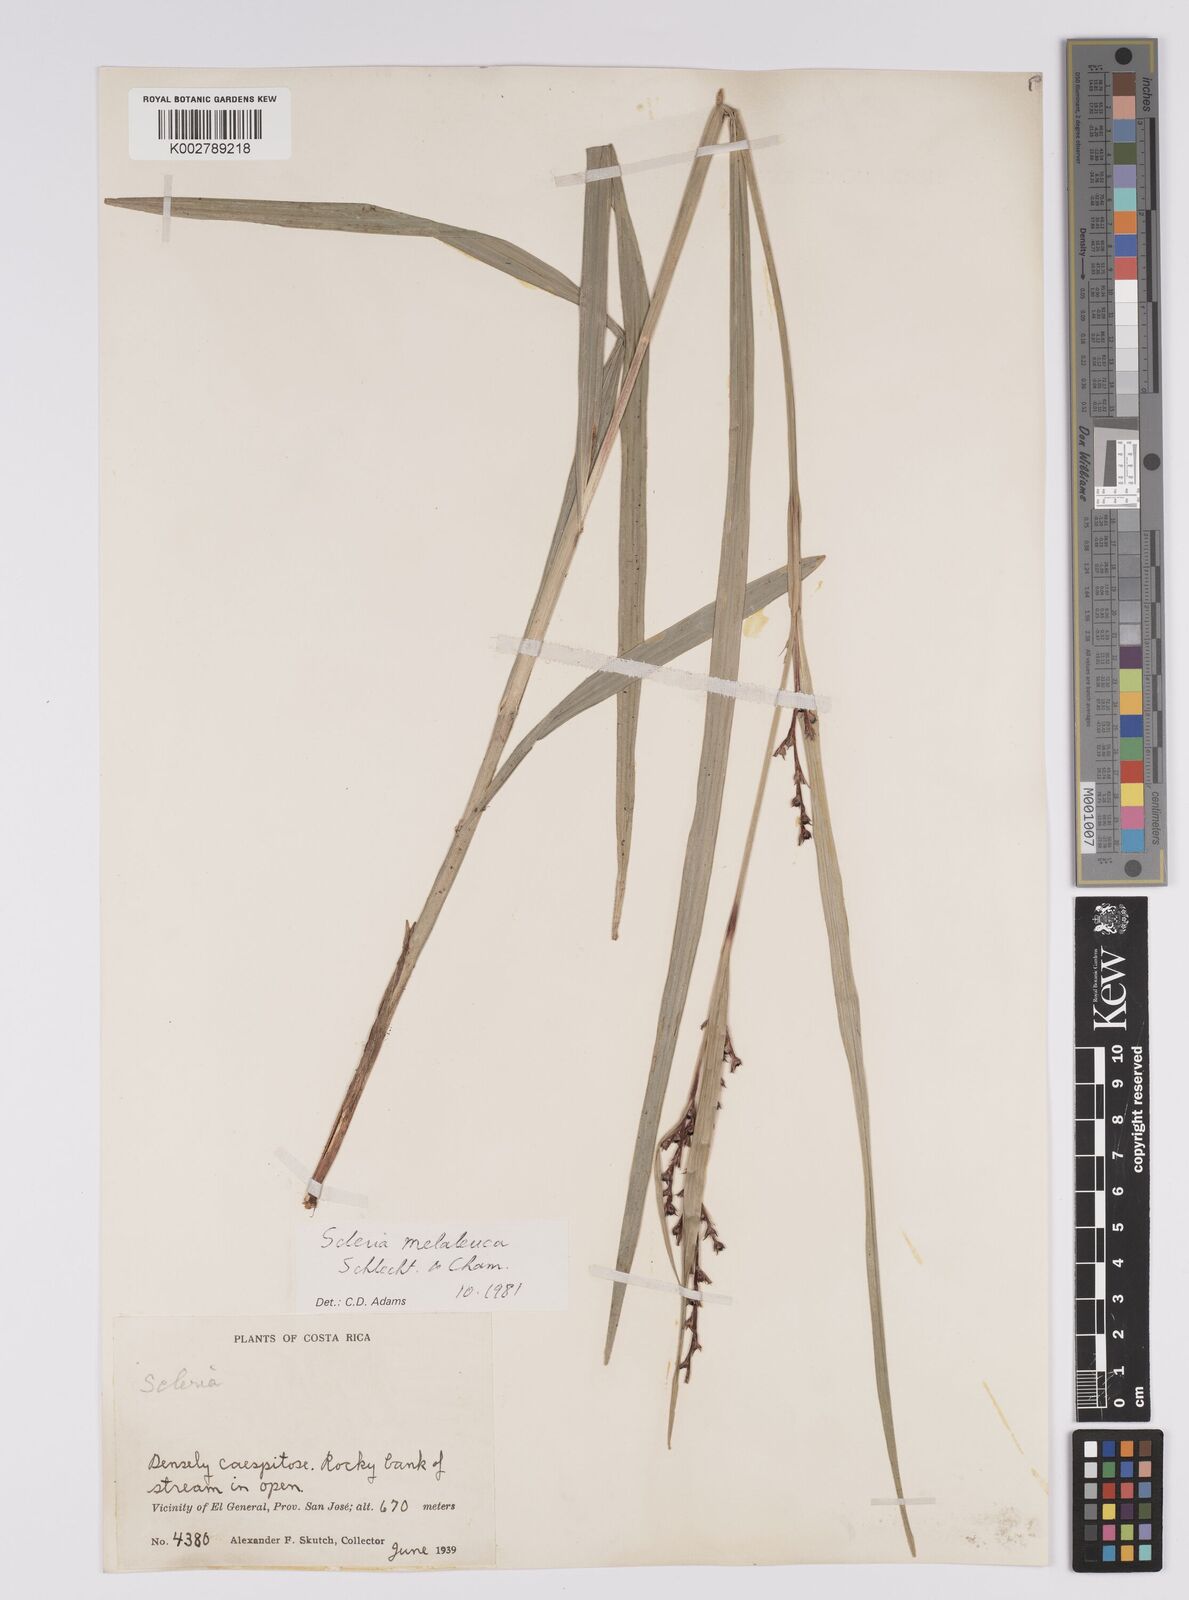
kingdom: Plantae
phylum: Tracheophyta
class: Liliopsida
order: Poales
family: Cyperaceae
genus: Scleria
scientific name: Scleria gaertneri
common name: Cortadera blanca
